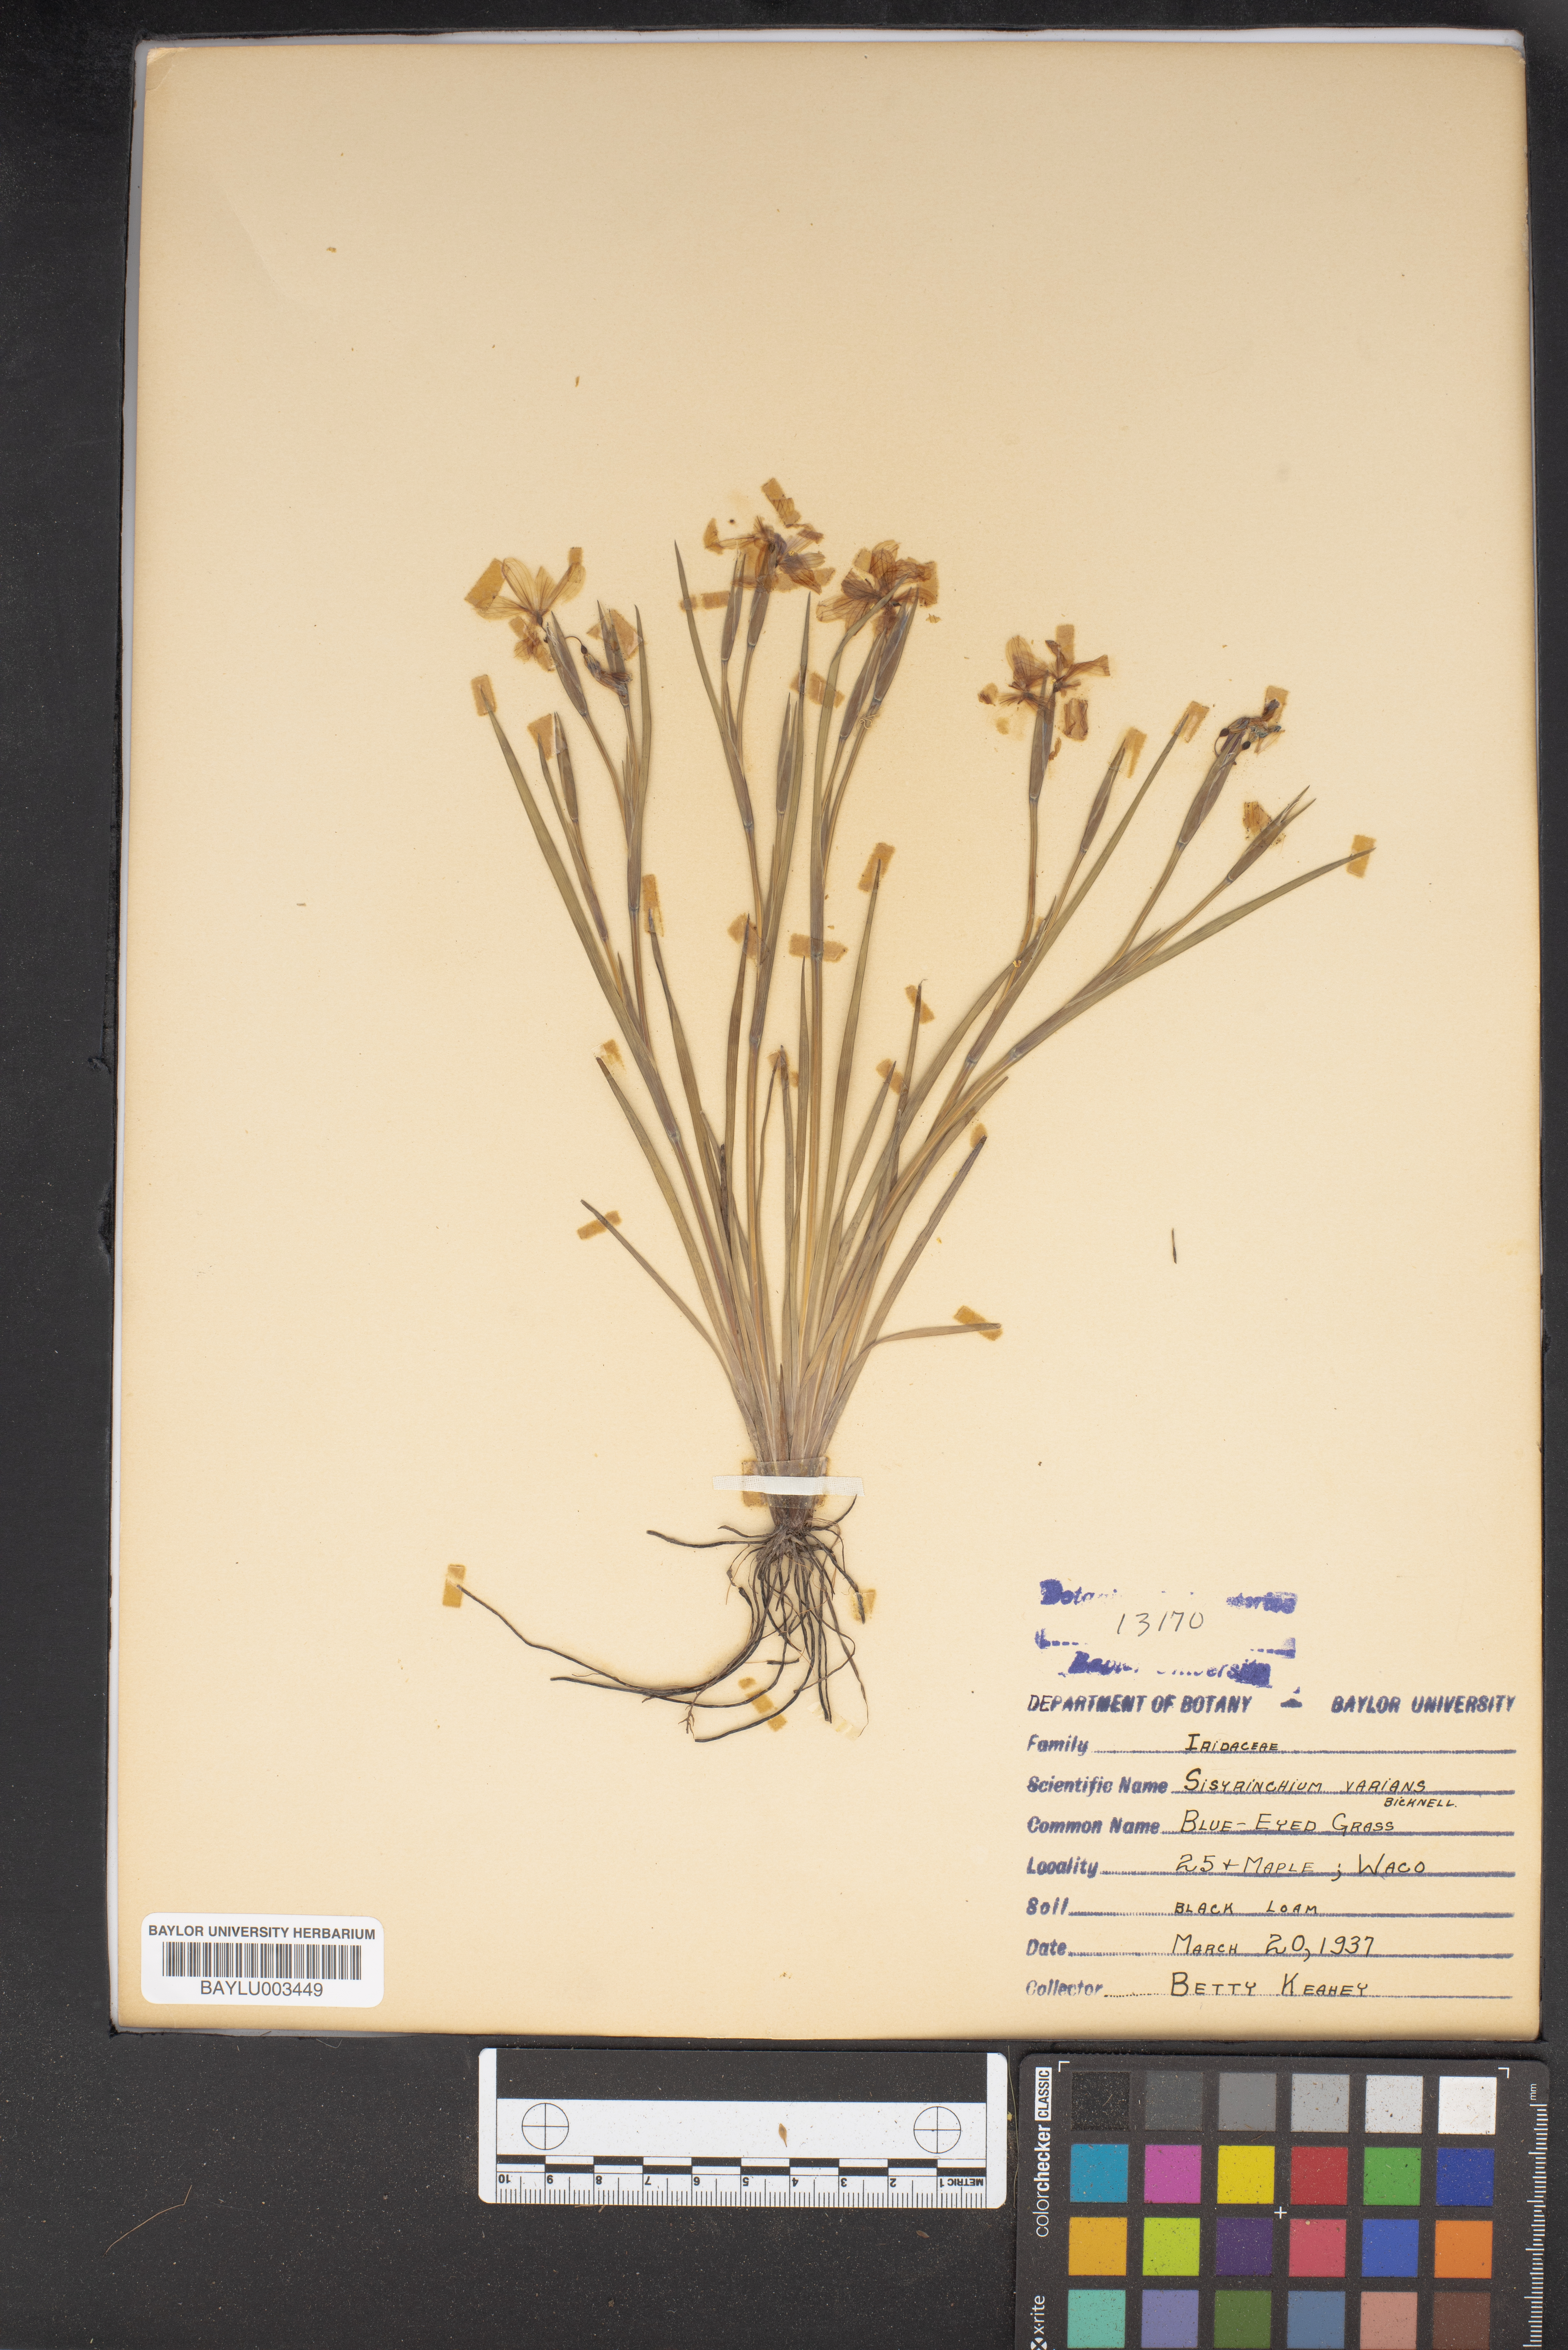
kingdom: Plantae
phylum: Tracheophyta
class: Liliopsida
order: Asparagales
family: Iridaceae
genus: Sisyrinchium
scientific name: Sisyrinchium pruinosum
